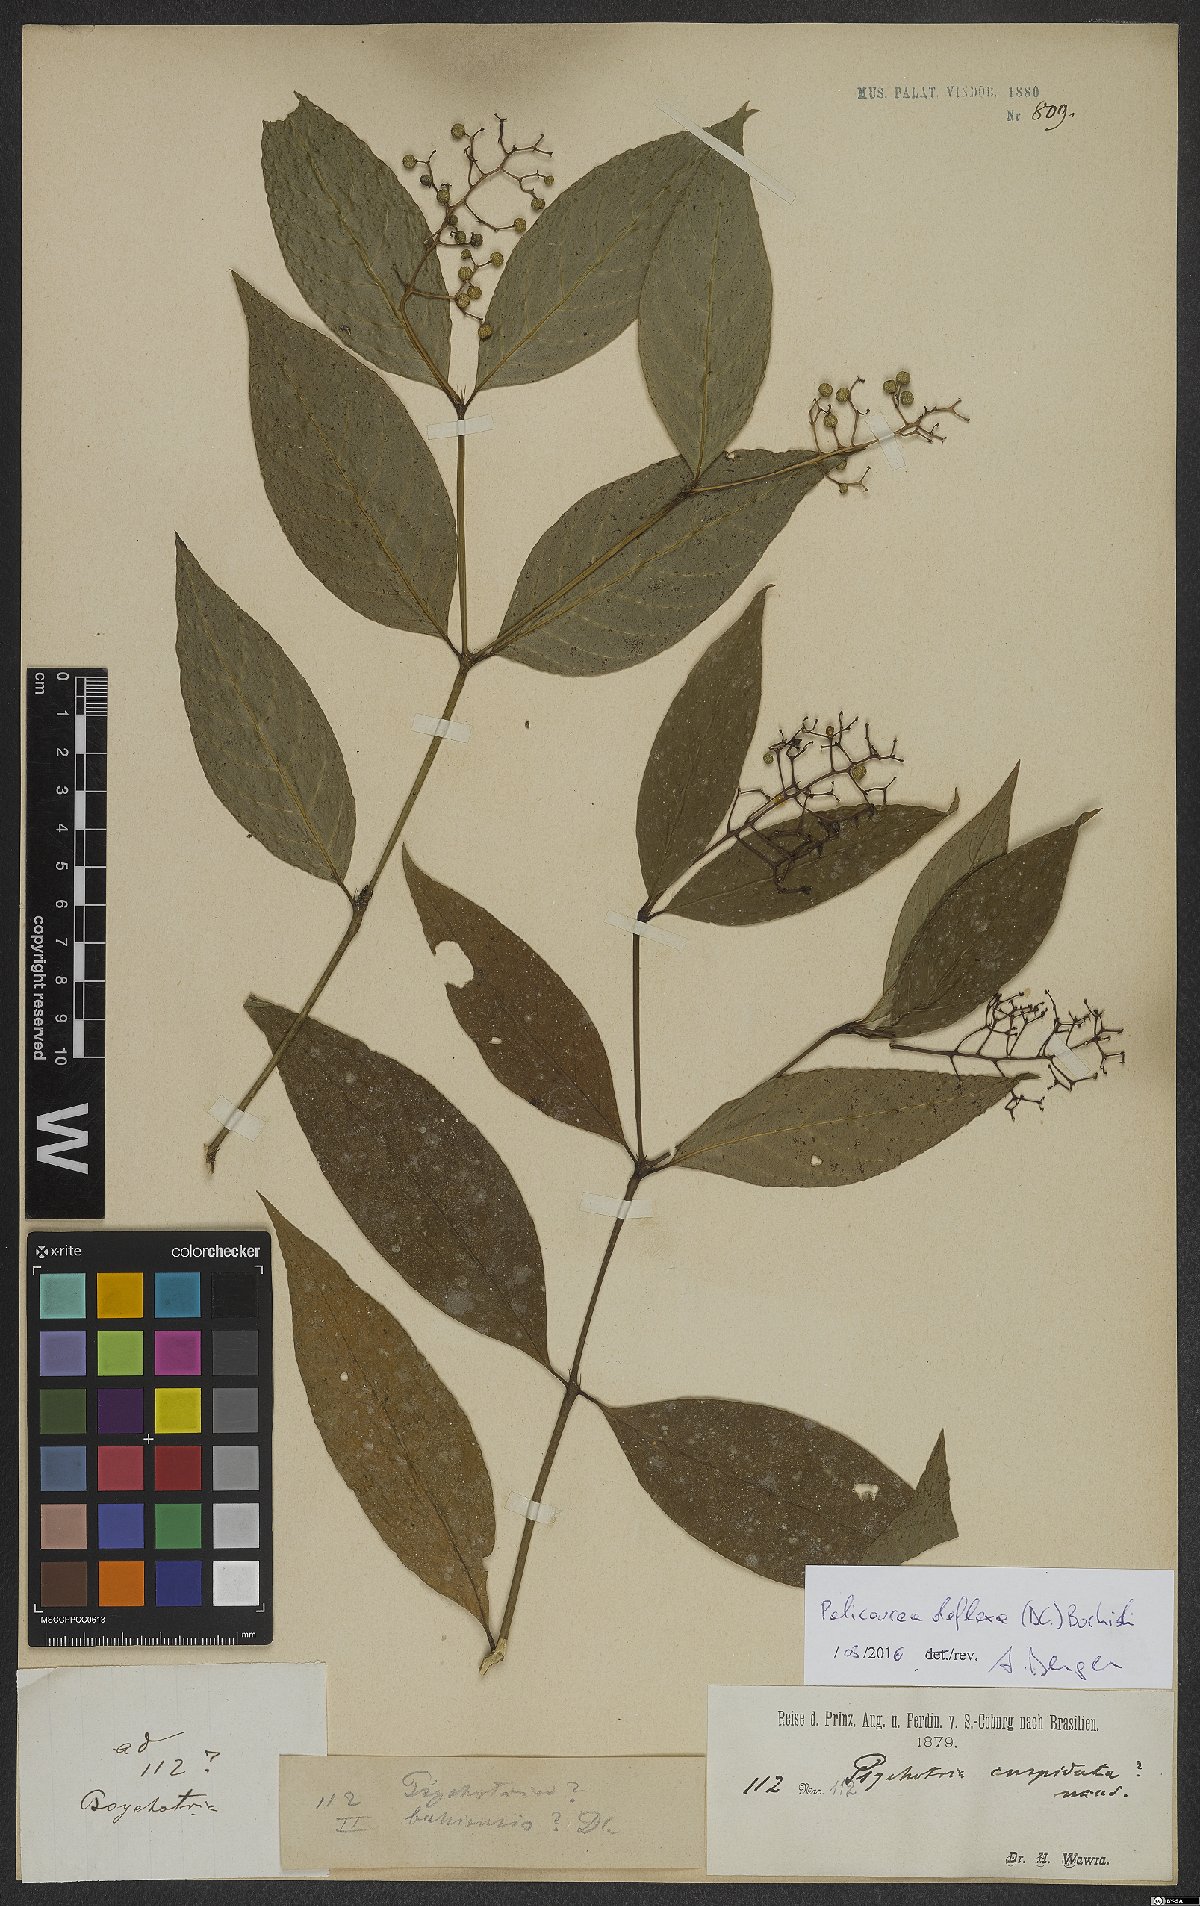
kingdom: Plantae
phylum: Tracheophyta
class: Magnoliopsida
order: Gentianales
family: Rubiaceae
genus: Palicourea
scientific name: Palicourea deflexa
